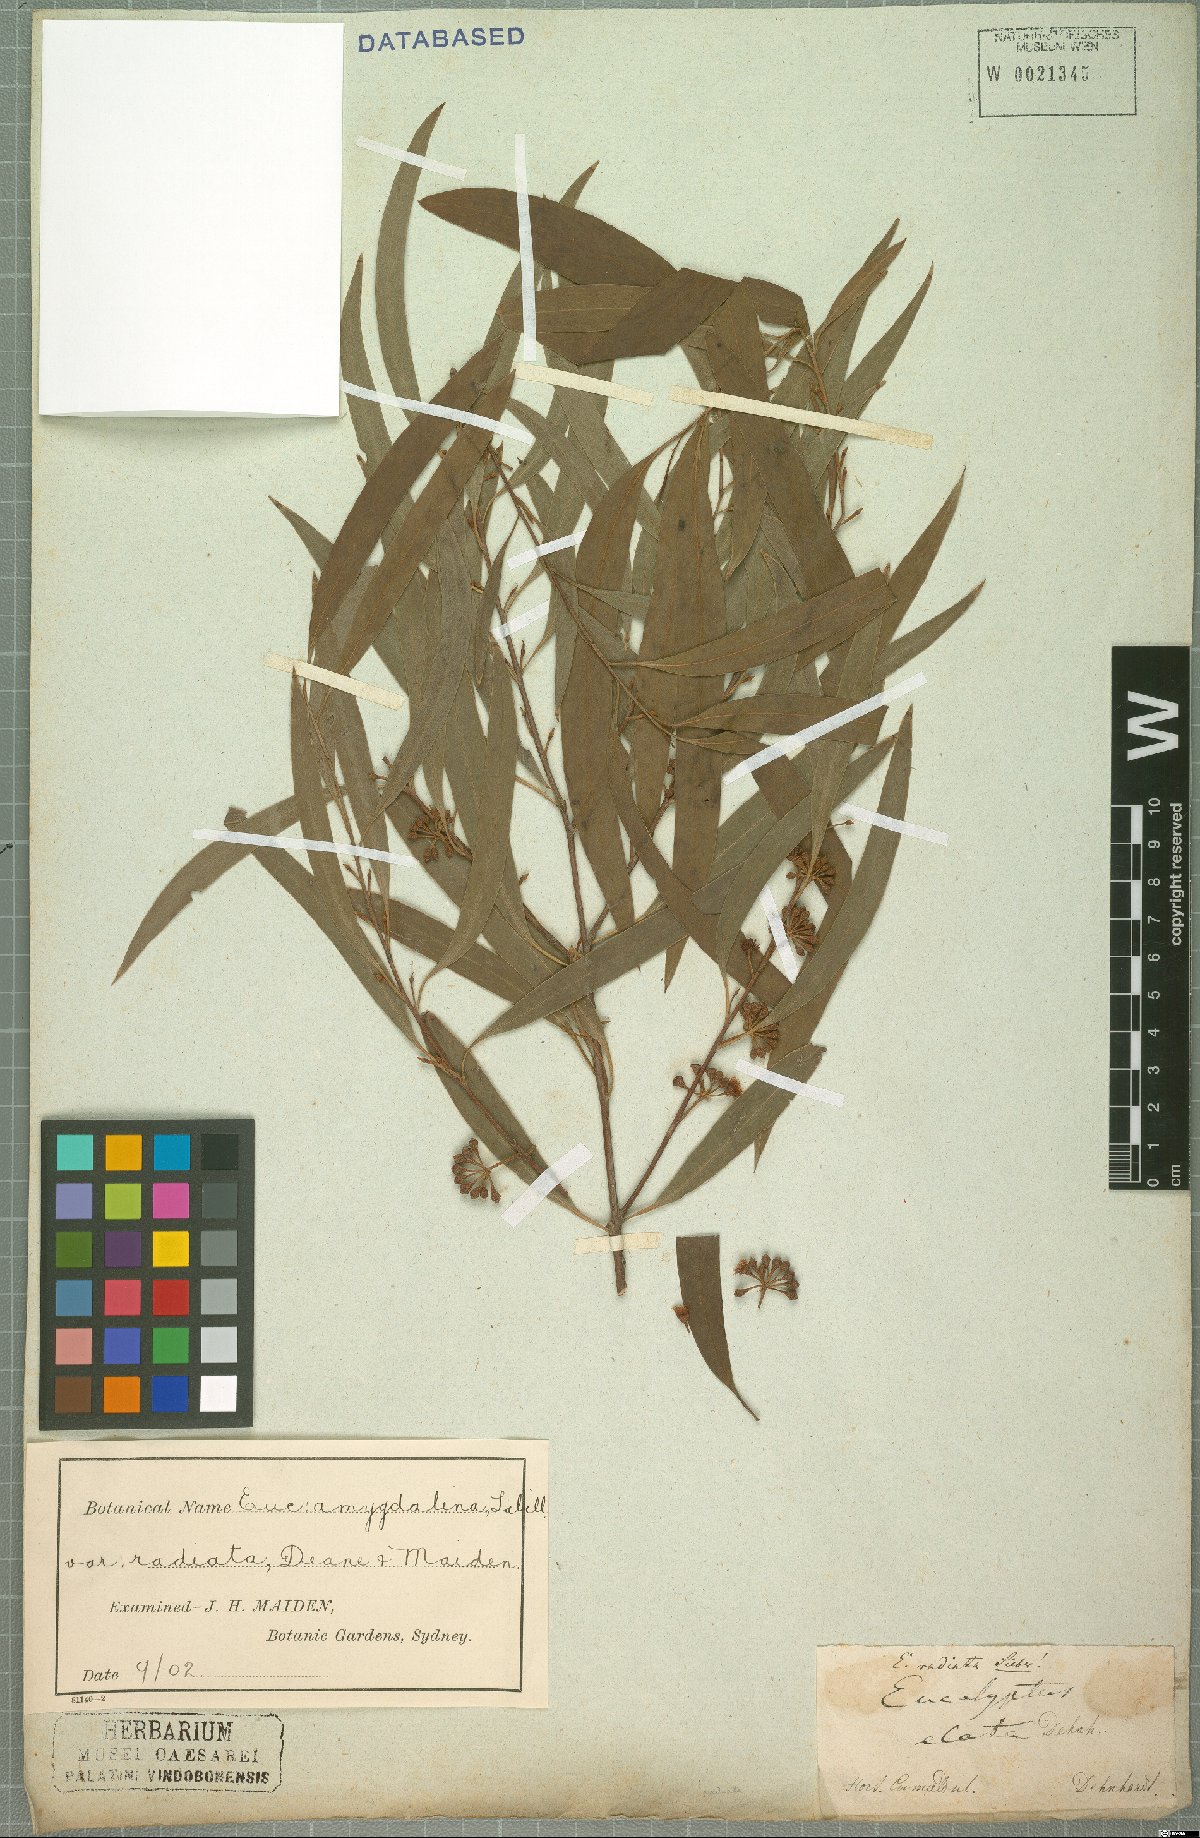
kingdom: Plantae
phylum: Tracheophyta
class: Magnoliopsida
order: Myrtales
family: Myrtaceae
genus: Eucalyptus
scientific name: Eucalyptus radiata
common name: Narrow-leaved-peppermint
